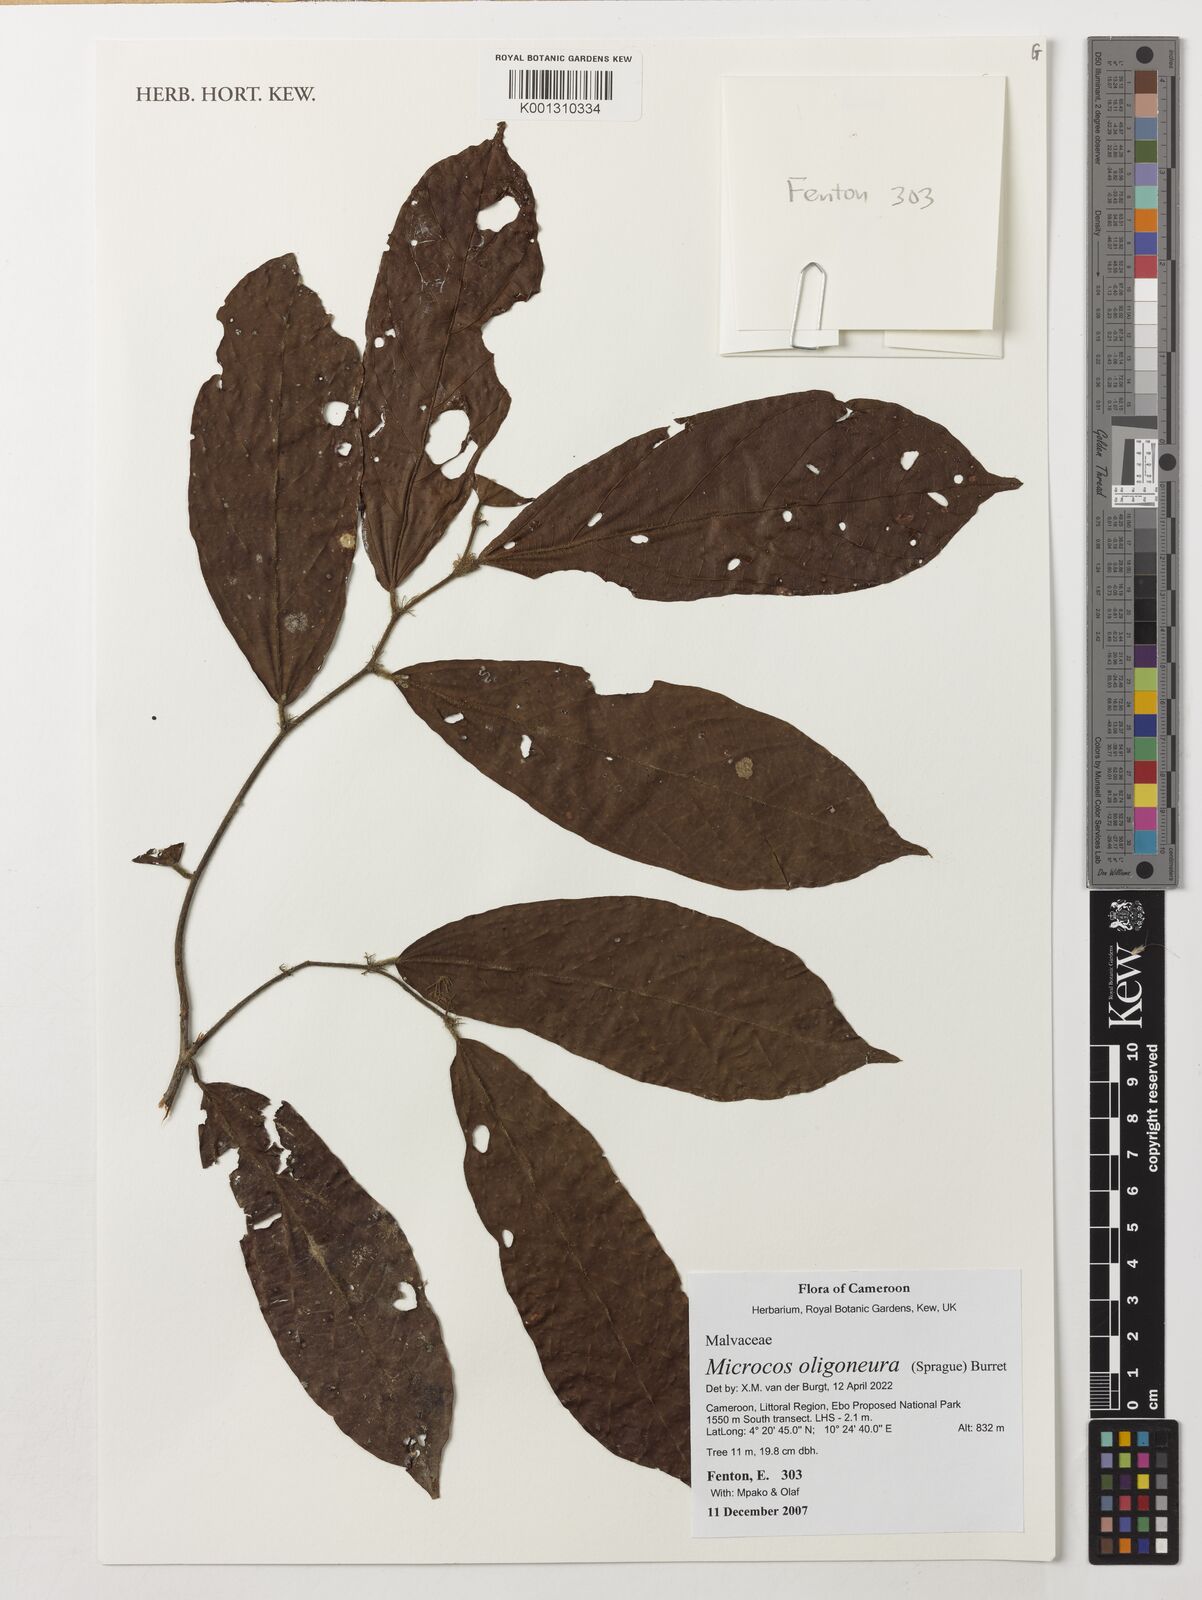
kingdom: Plantae
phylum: Tracheophyta
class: Magnoliopsida
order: Malvales
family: Malvaceae
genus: Microcos
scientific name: Microcos oligoneura
